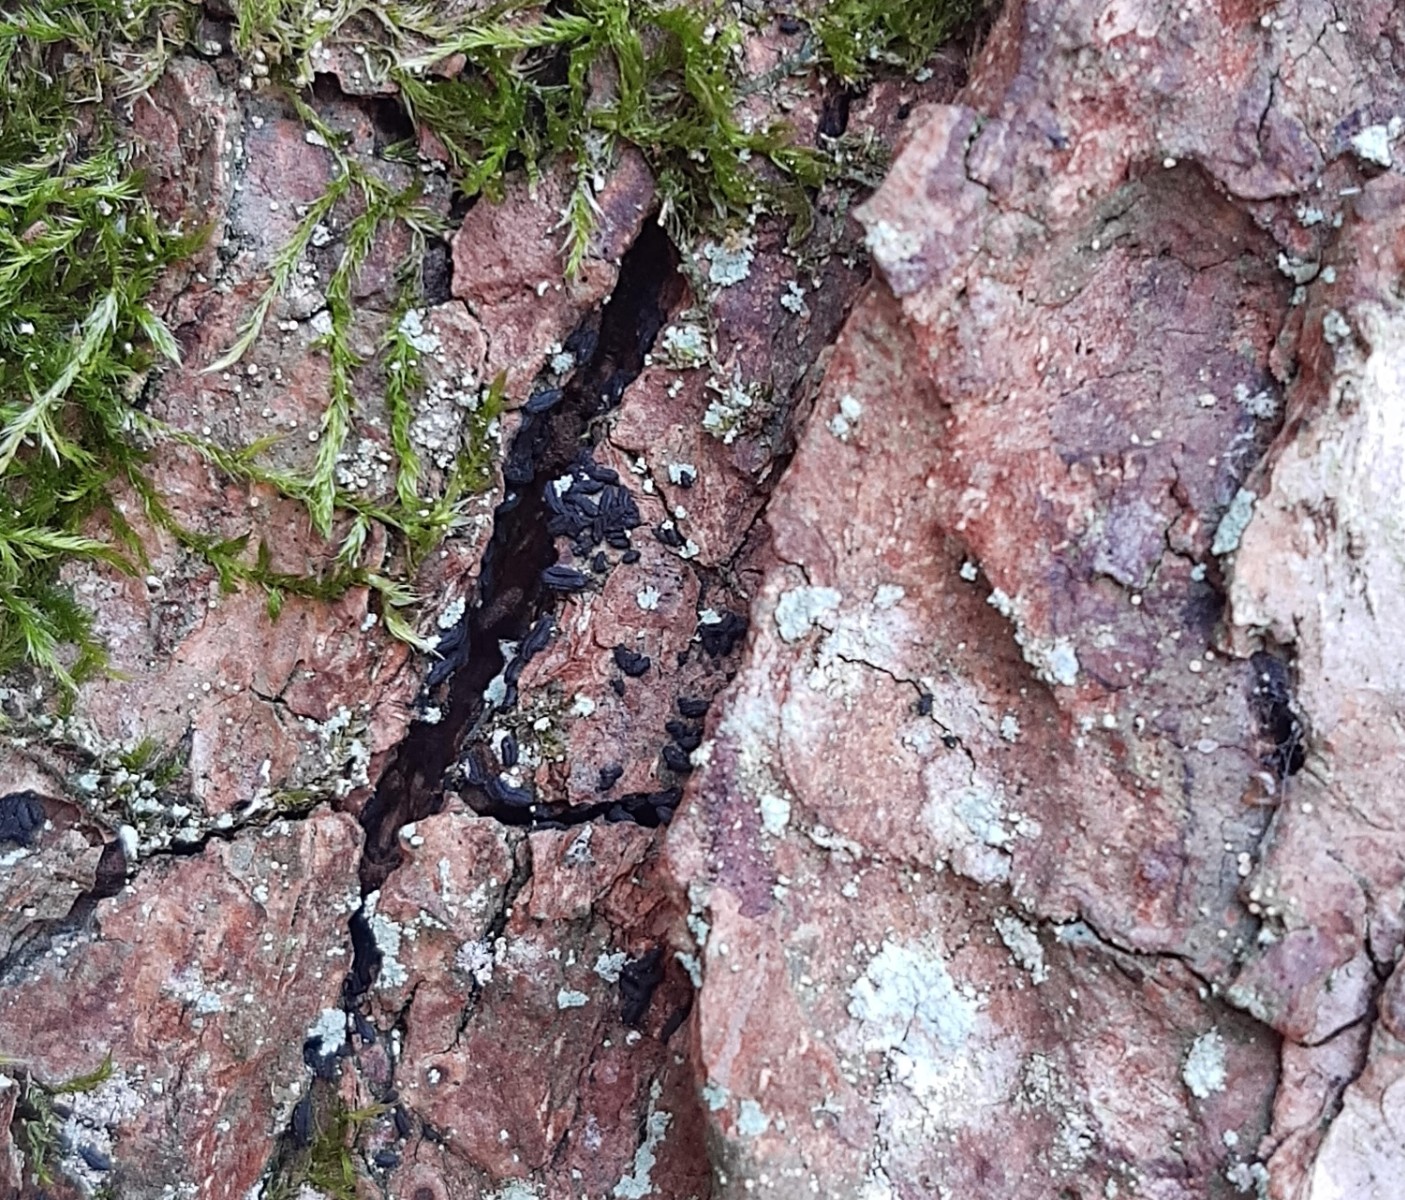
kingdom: Fungi
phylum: Ascomycota
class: Dothideomycetes
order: Hysteriales
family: Hysteriaceae
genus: Hysterium
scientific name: Hysterium pulicare
